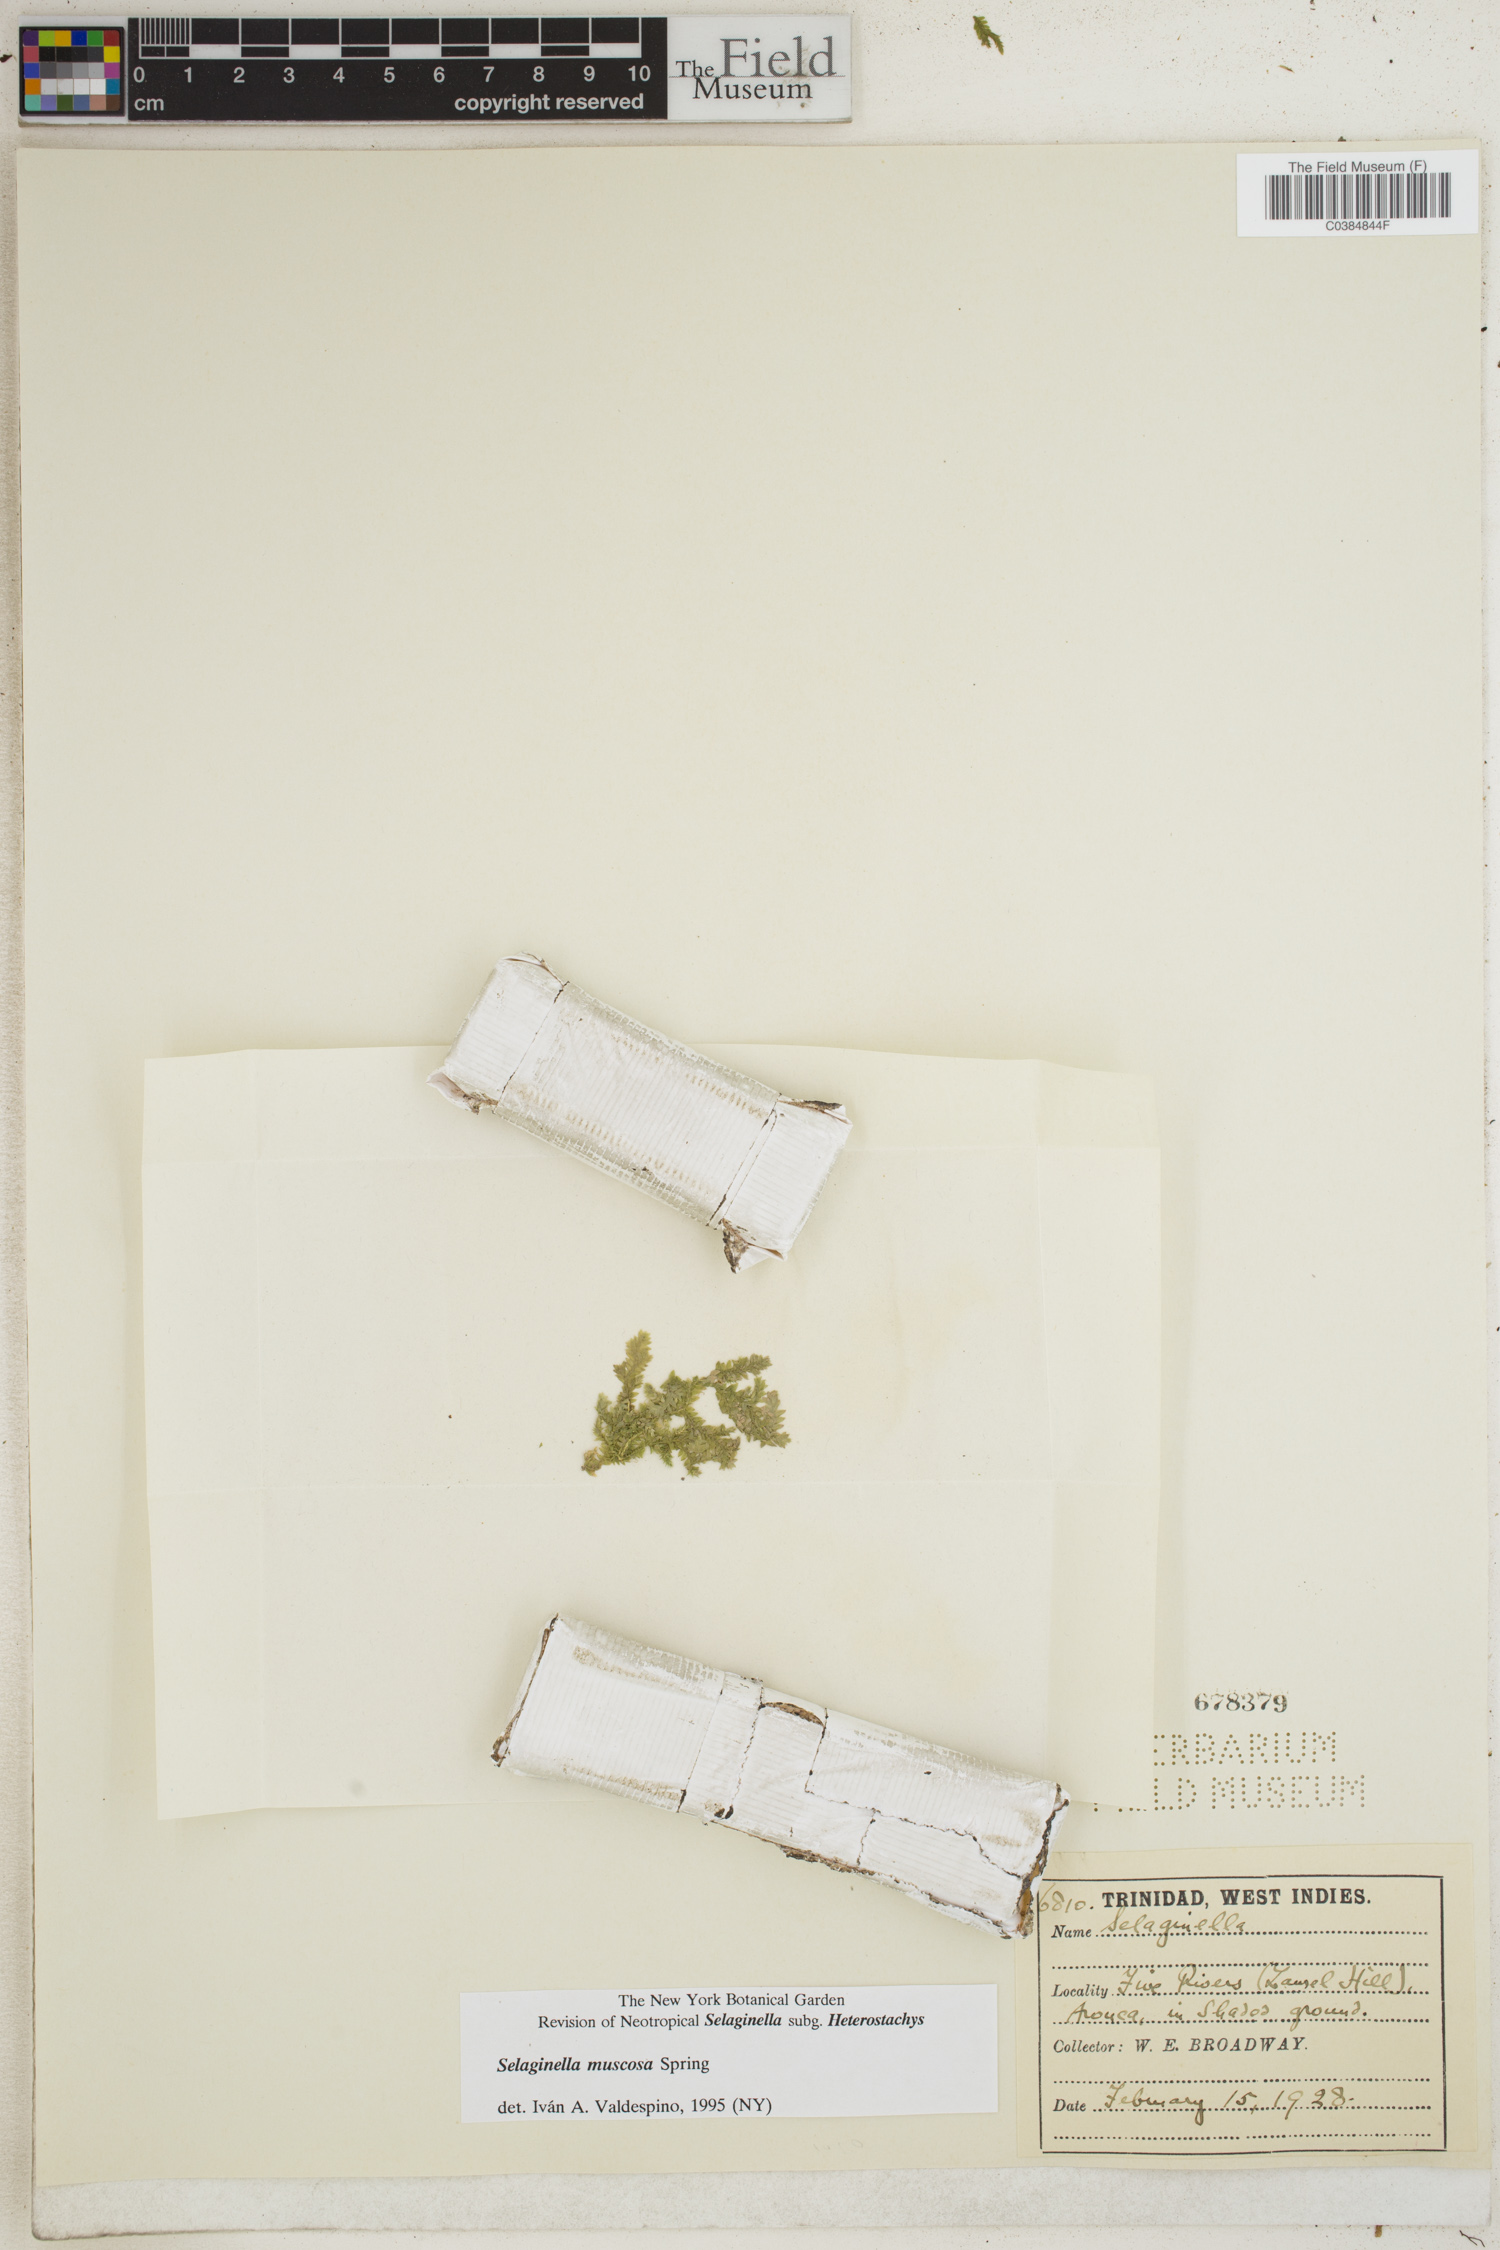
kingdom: Plantae
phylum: Tracheophyta
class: Lycopodiopsida
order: Selaginellales
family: Selaginellaceae
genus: Selaginella
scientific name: Selaginella muscosa
